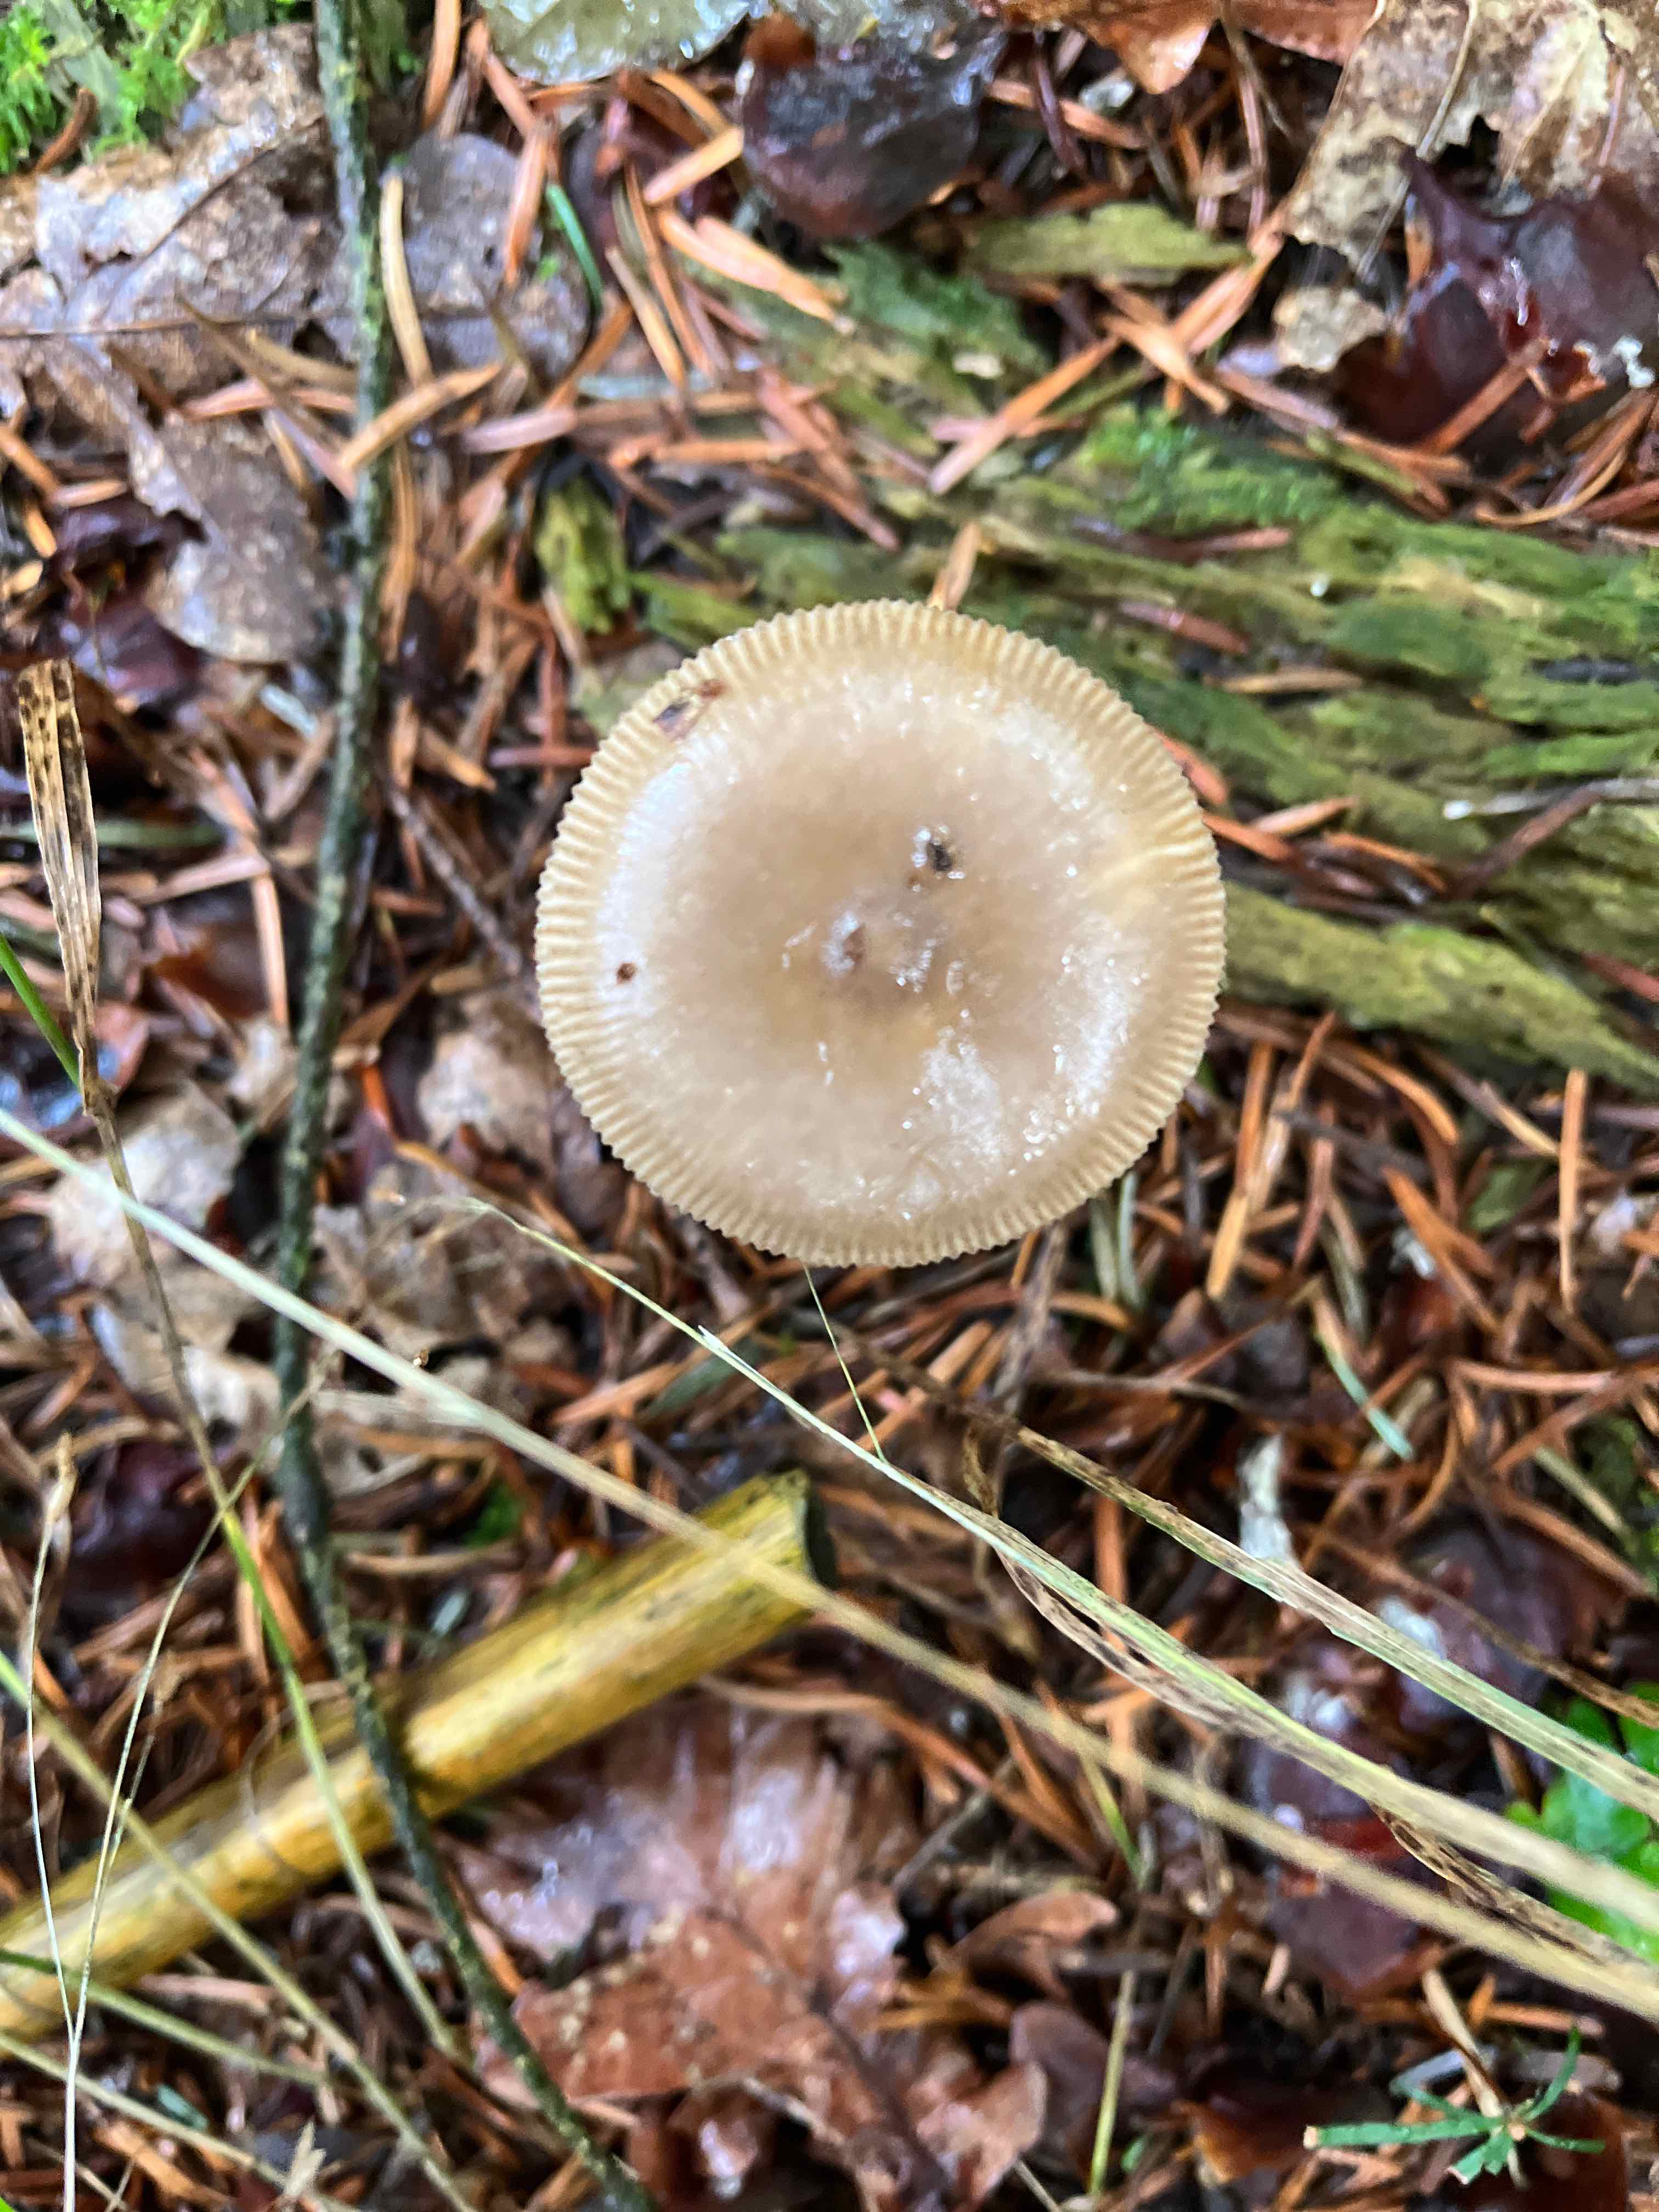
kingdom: Fungi
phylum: Basidiomycota
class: Agaricomycetes
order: Agaricales
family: Amanitaceae
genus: Amanita
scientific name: Amanita vaginata
